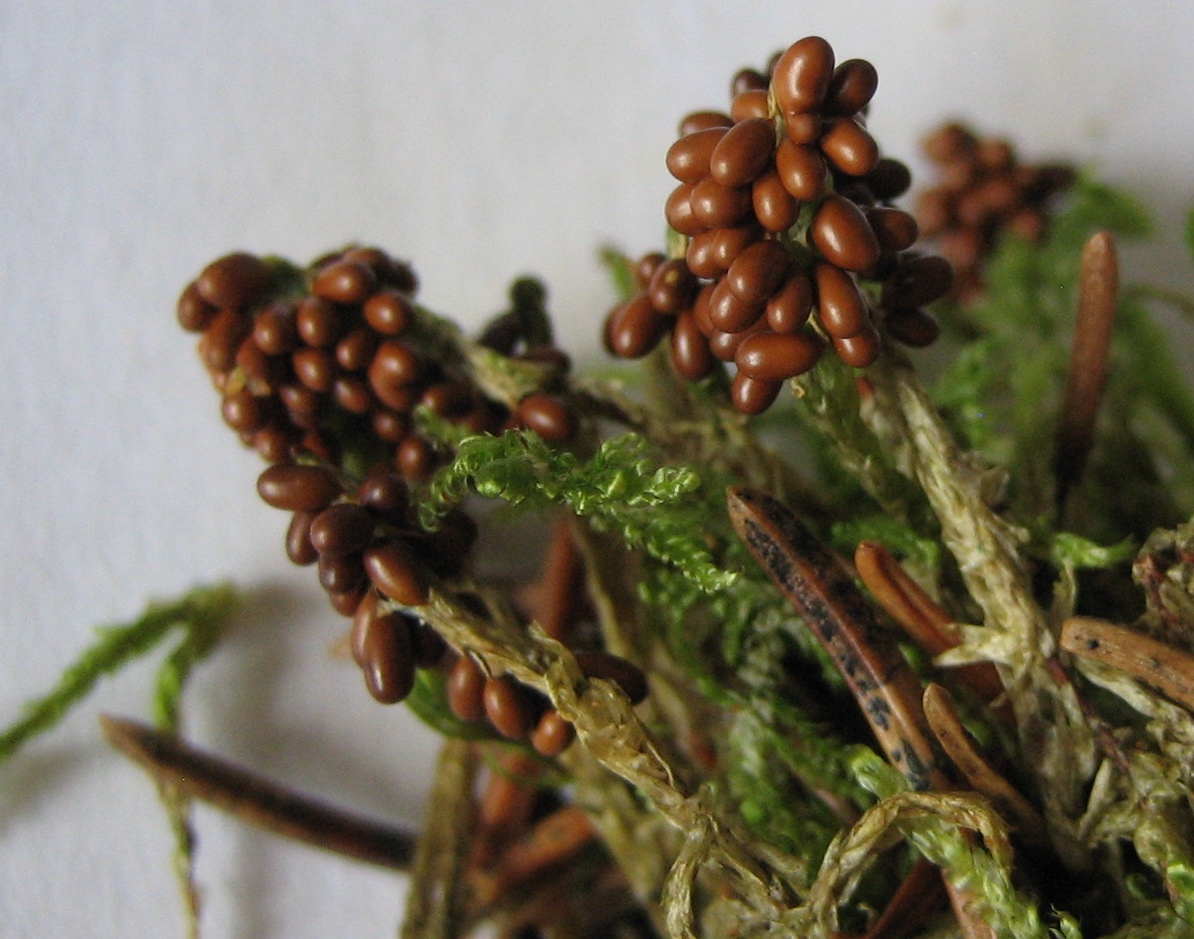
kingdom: Protozoa
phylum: Mycetozoa
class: Myxomycetes
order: Physarales
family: Physaraceae
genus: Leocarpus
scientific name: Leocarpus fragilis
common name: poleret glatfrø
